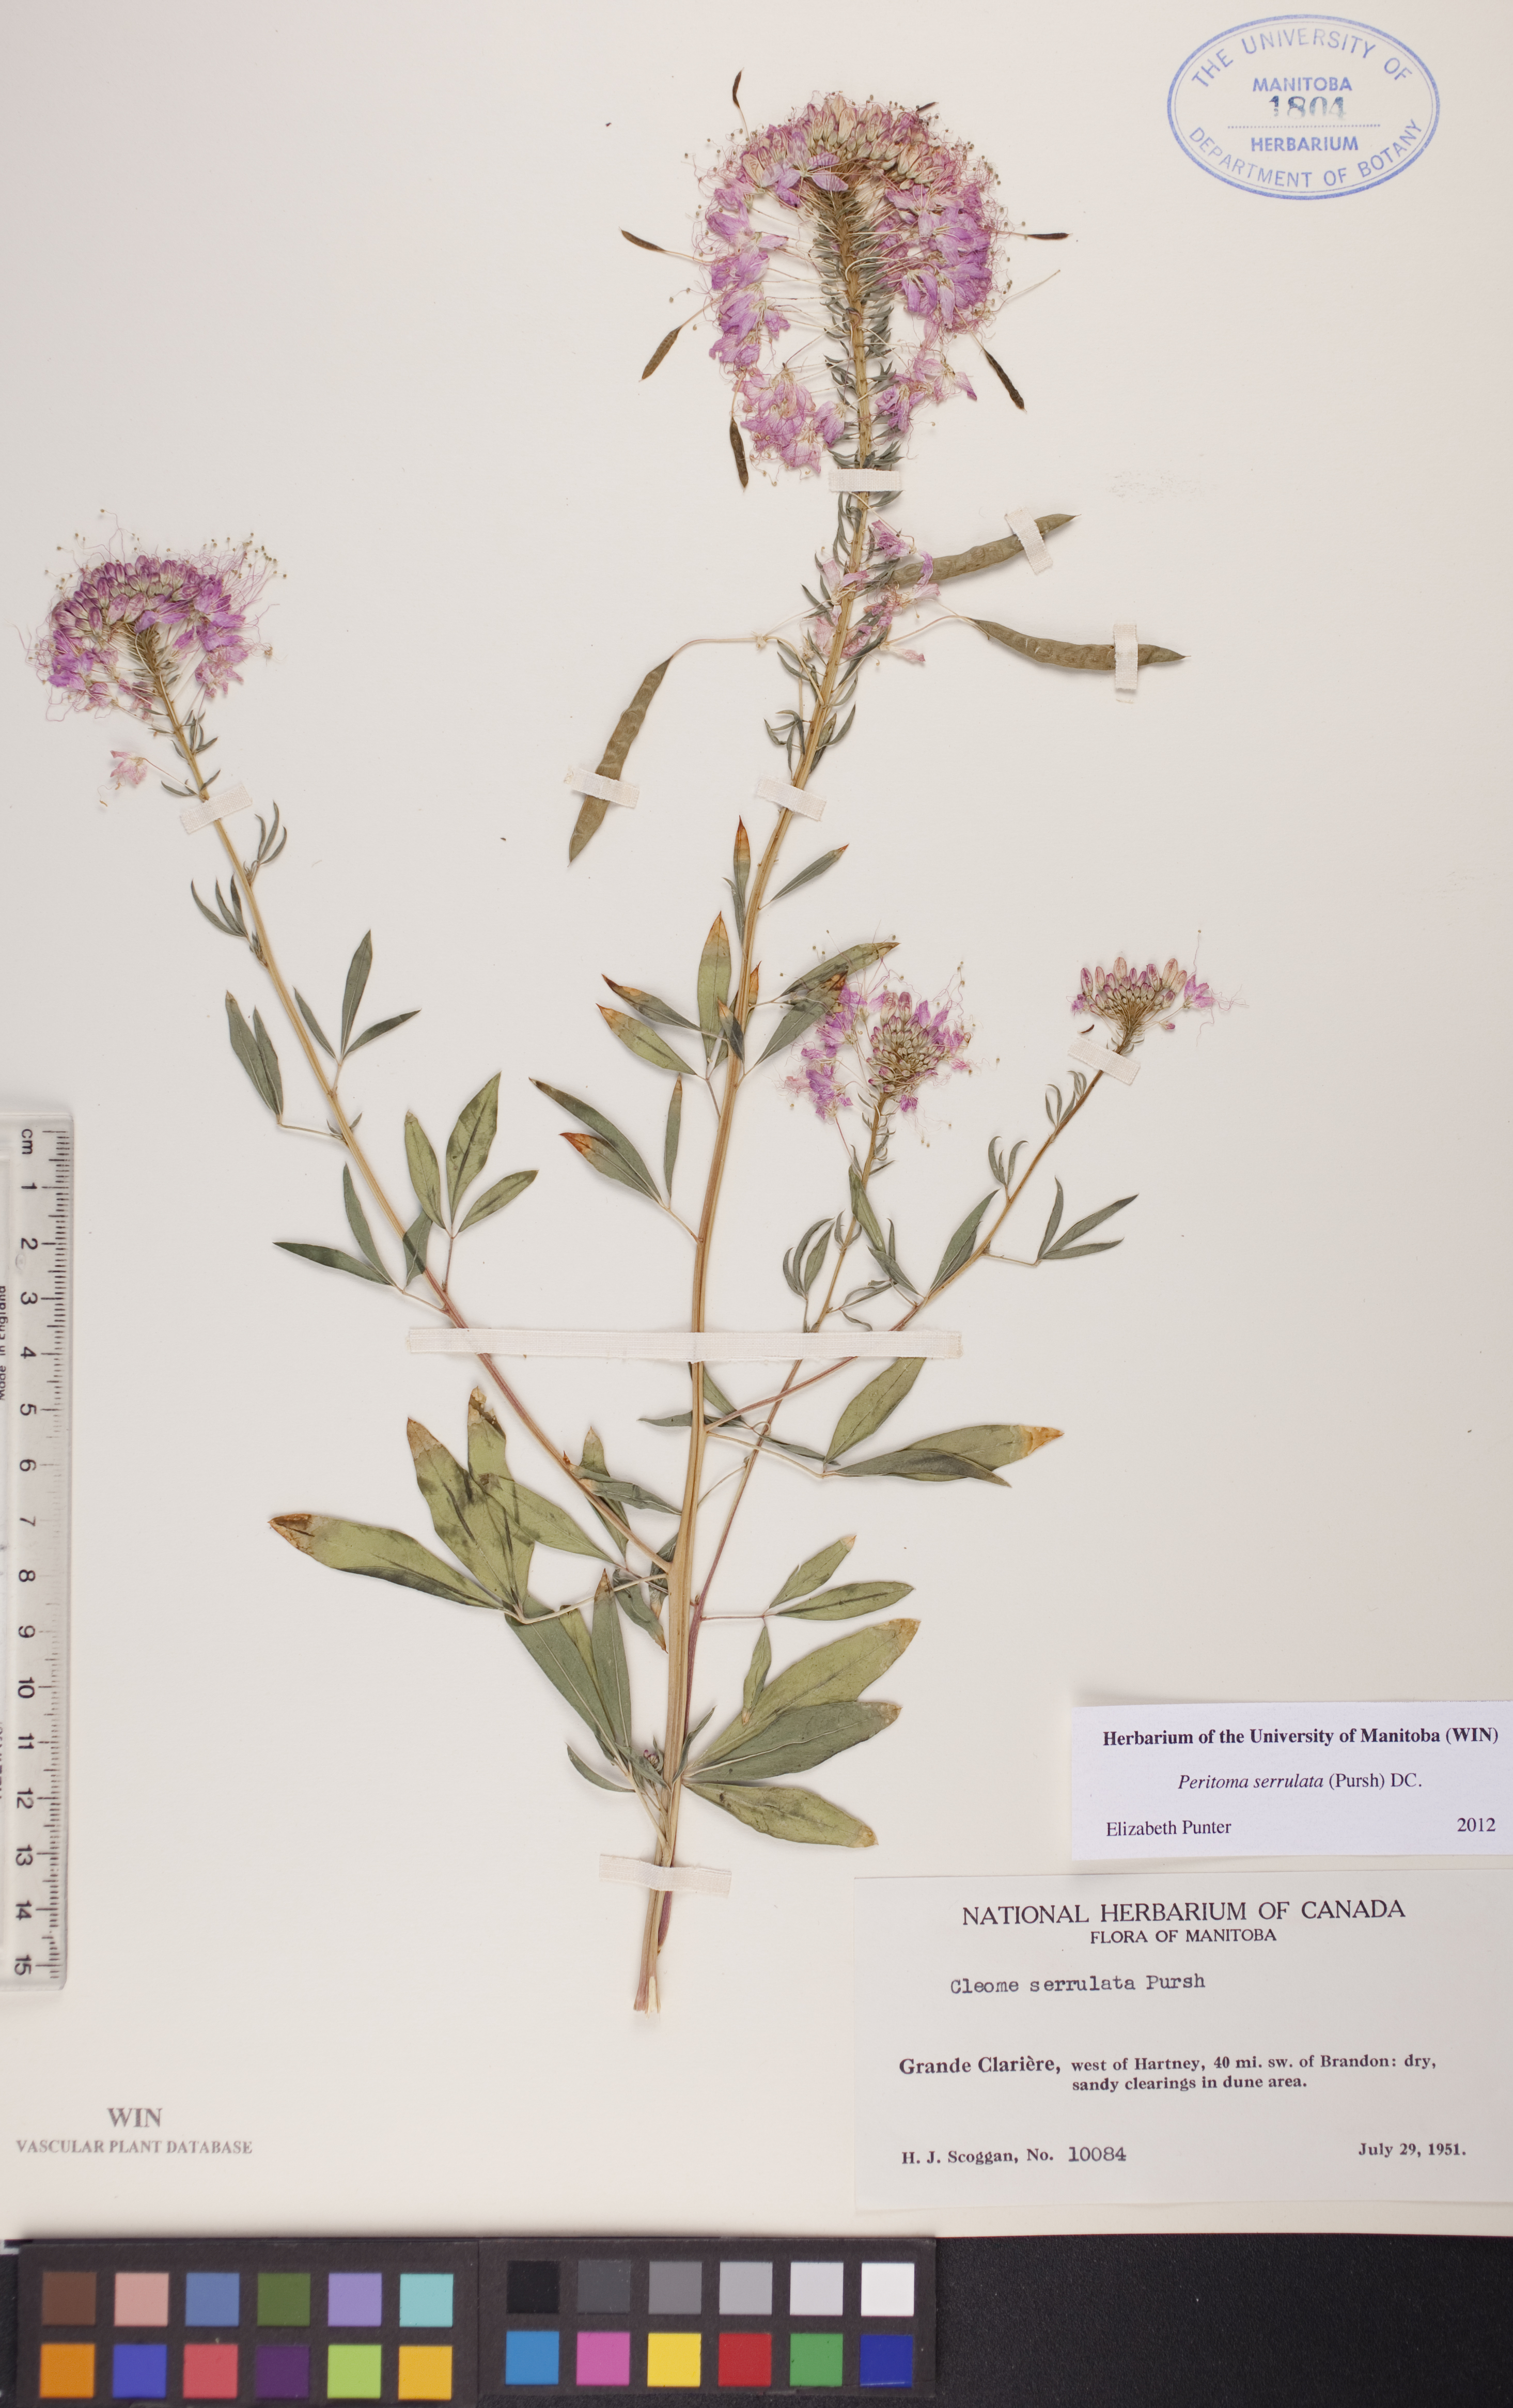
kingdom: Plantae
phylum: Tracheophyta
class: Magnoliopsida
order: Brassicales
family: Cleomaceae
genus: Cleomella
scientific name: Cleomella serrulata
